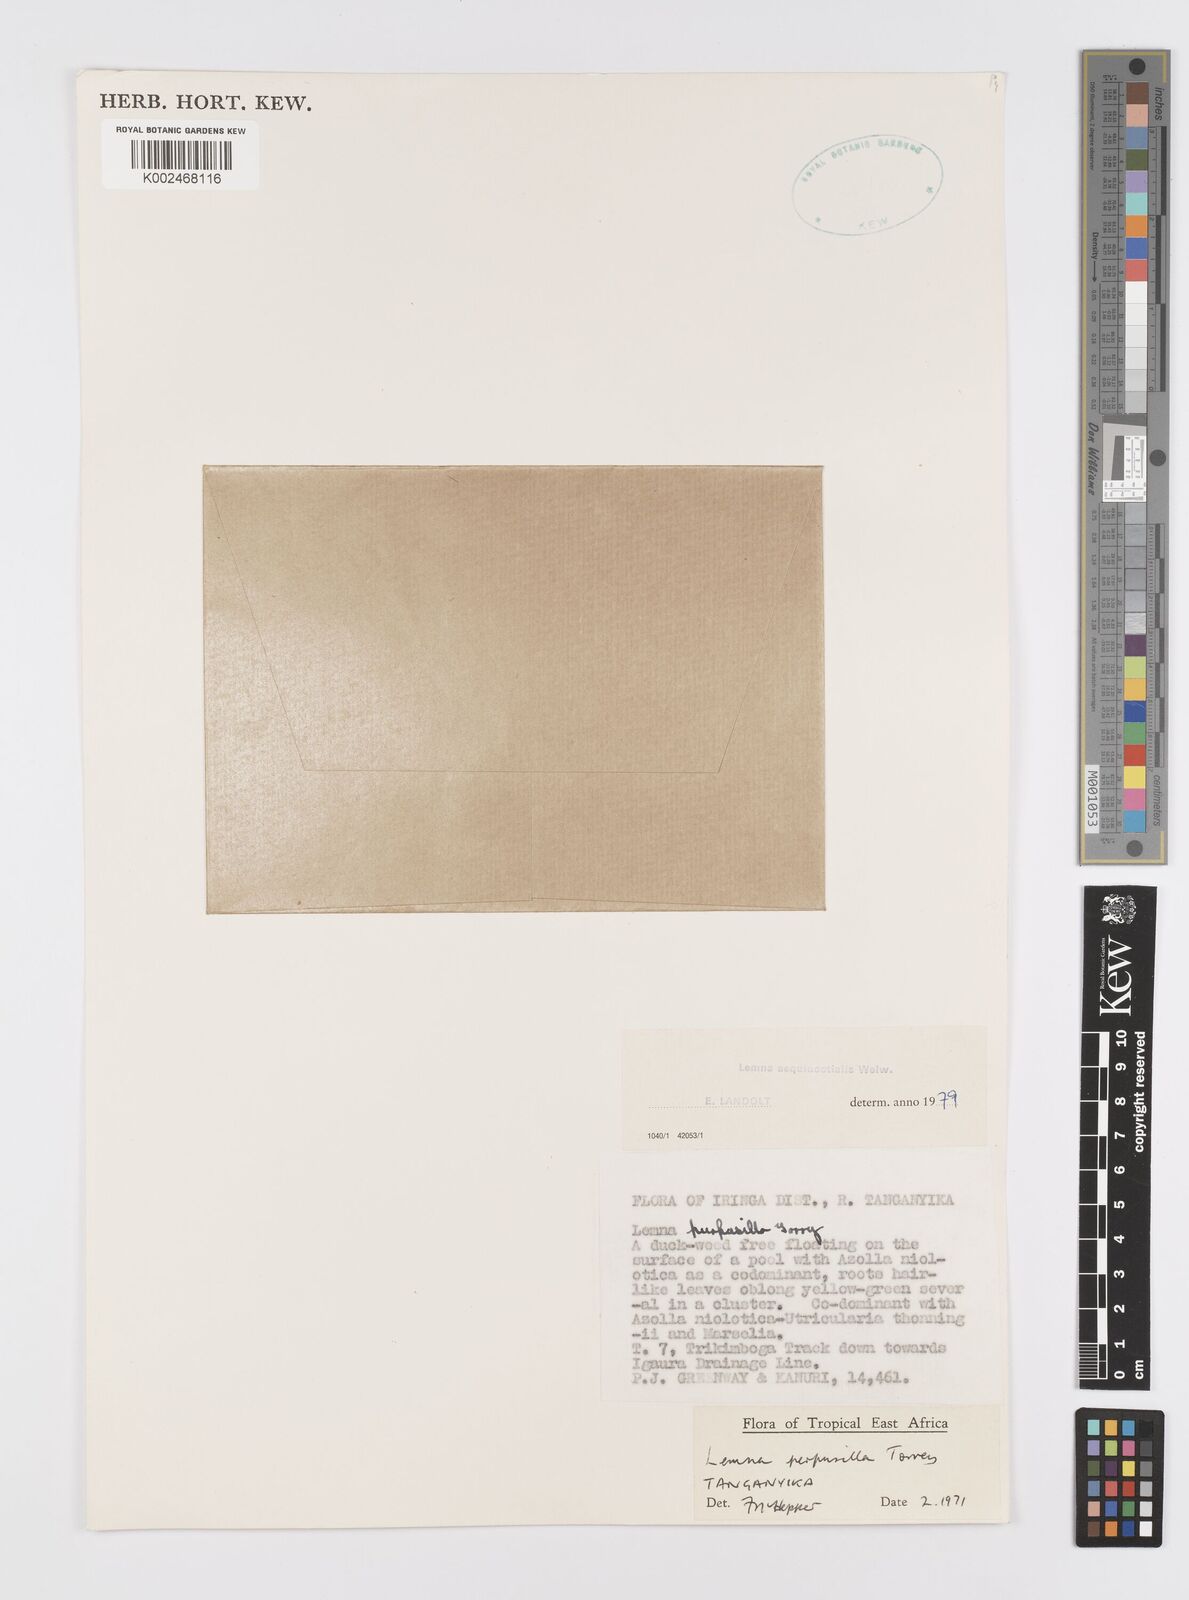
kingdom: Plantae
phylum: Tracheophyta
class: Liliopsida
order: Alismatales
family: Araceae
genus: Lemna
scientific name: Lemna aequinoctialis
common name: Duckweed
